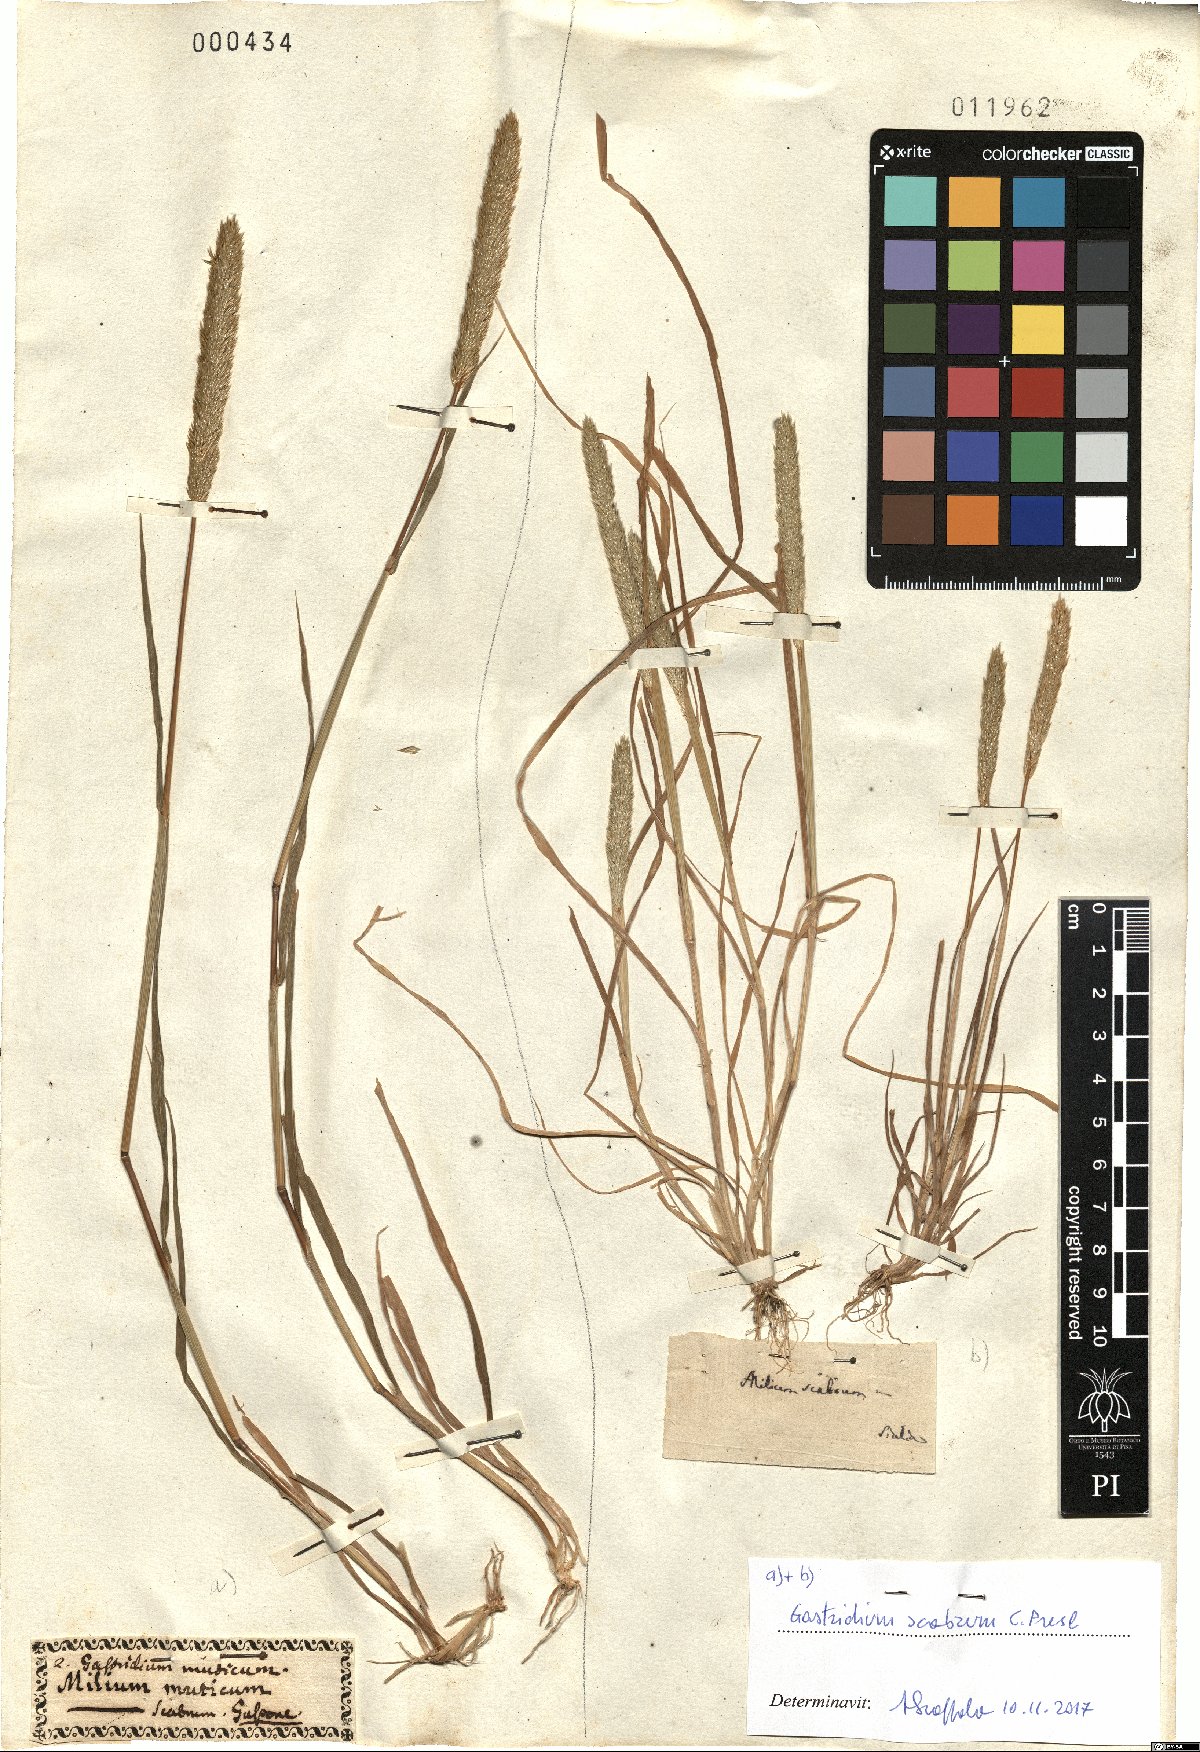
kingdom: Plantae
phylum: Tracheophyta
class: Liliopsida
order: Poales
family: Poaceae
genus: Gastridium
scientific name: Gastridium scabrum
